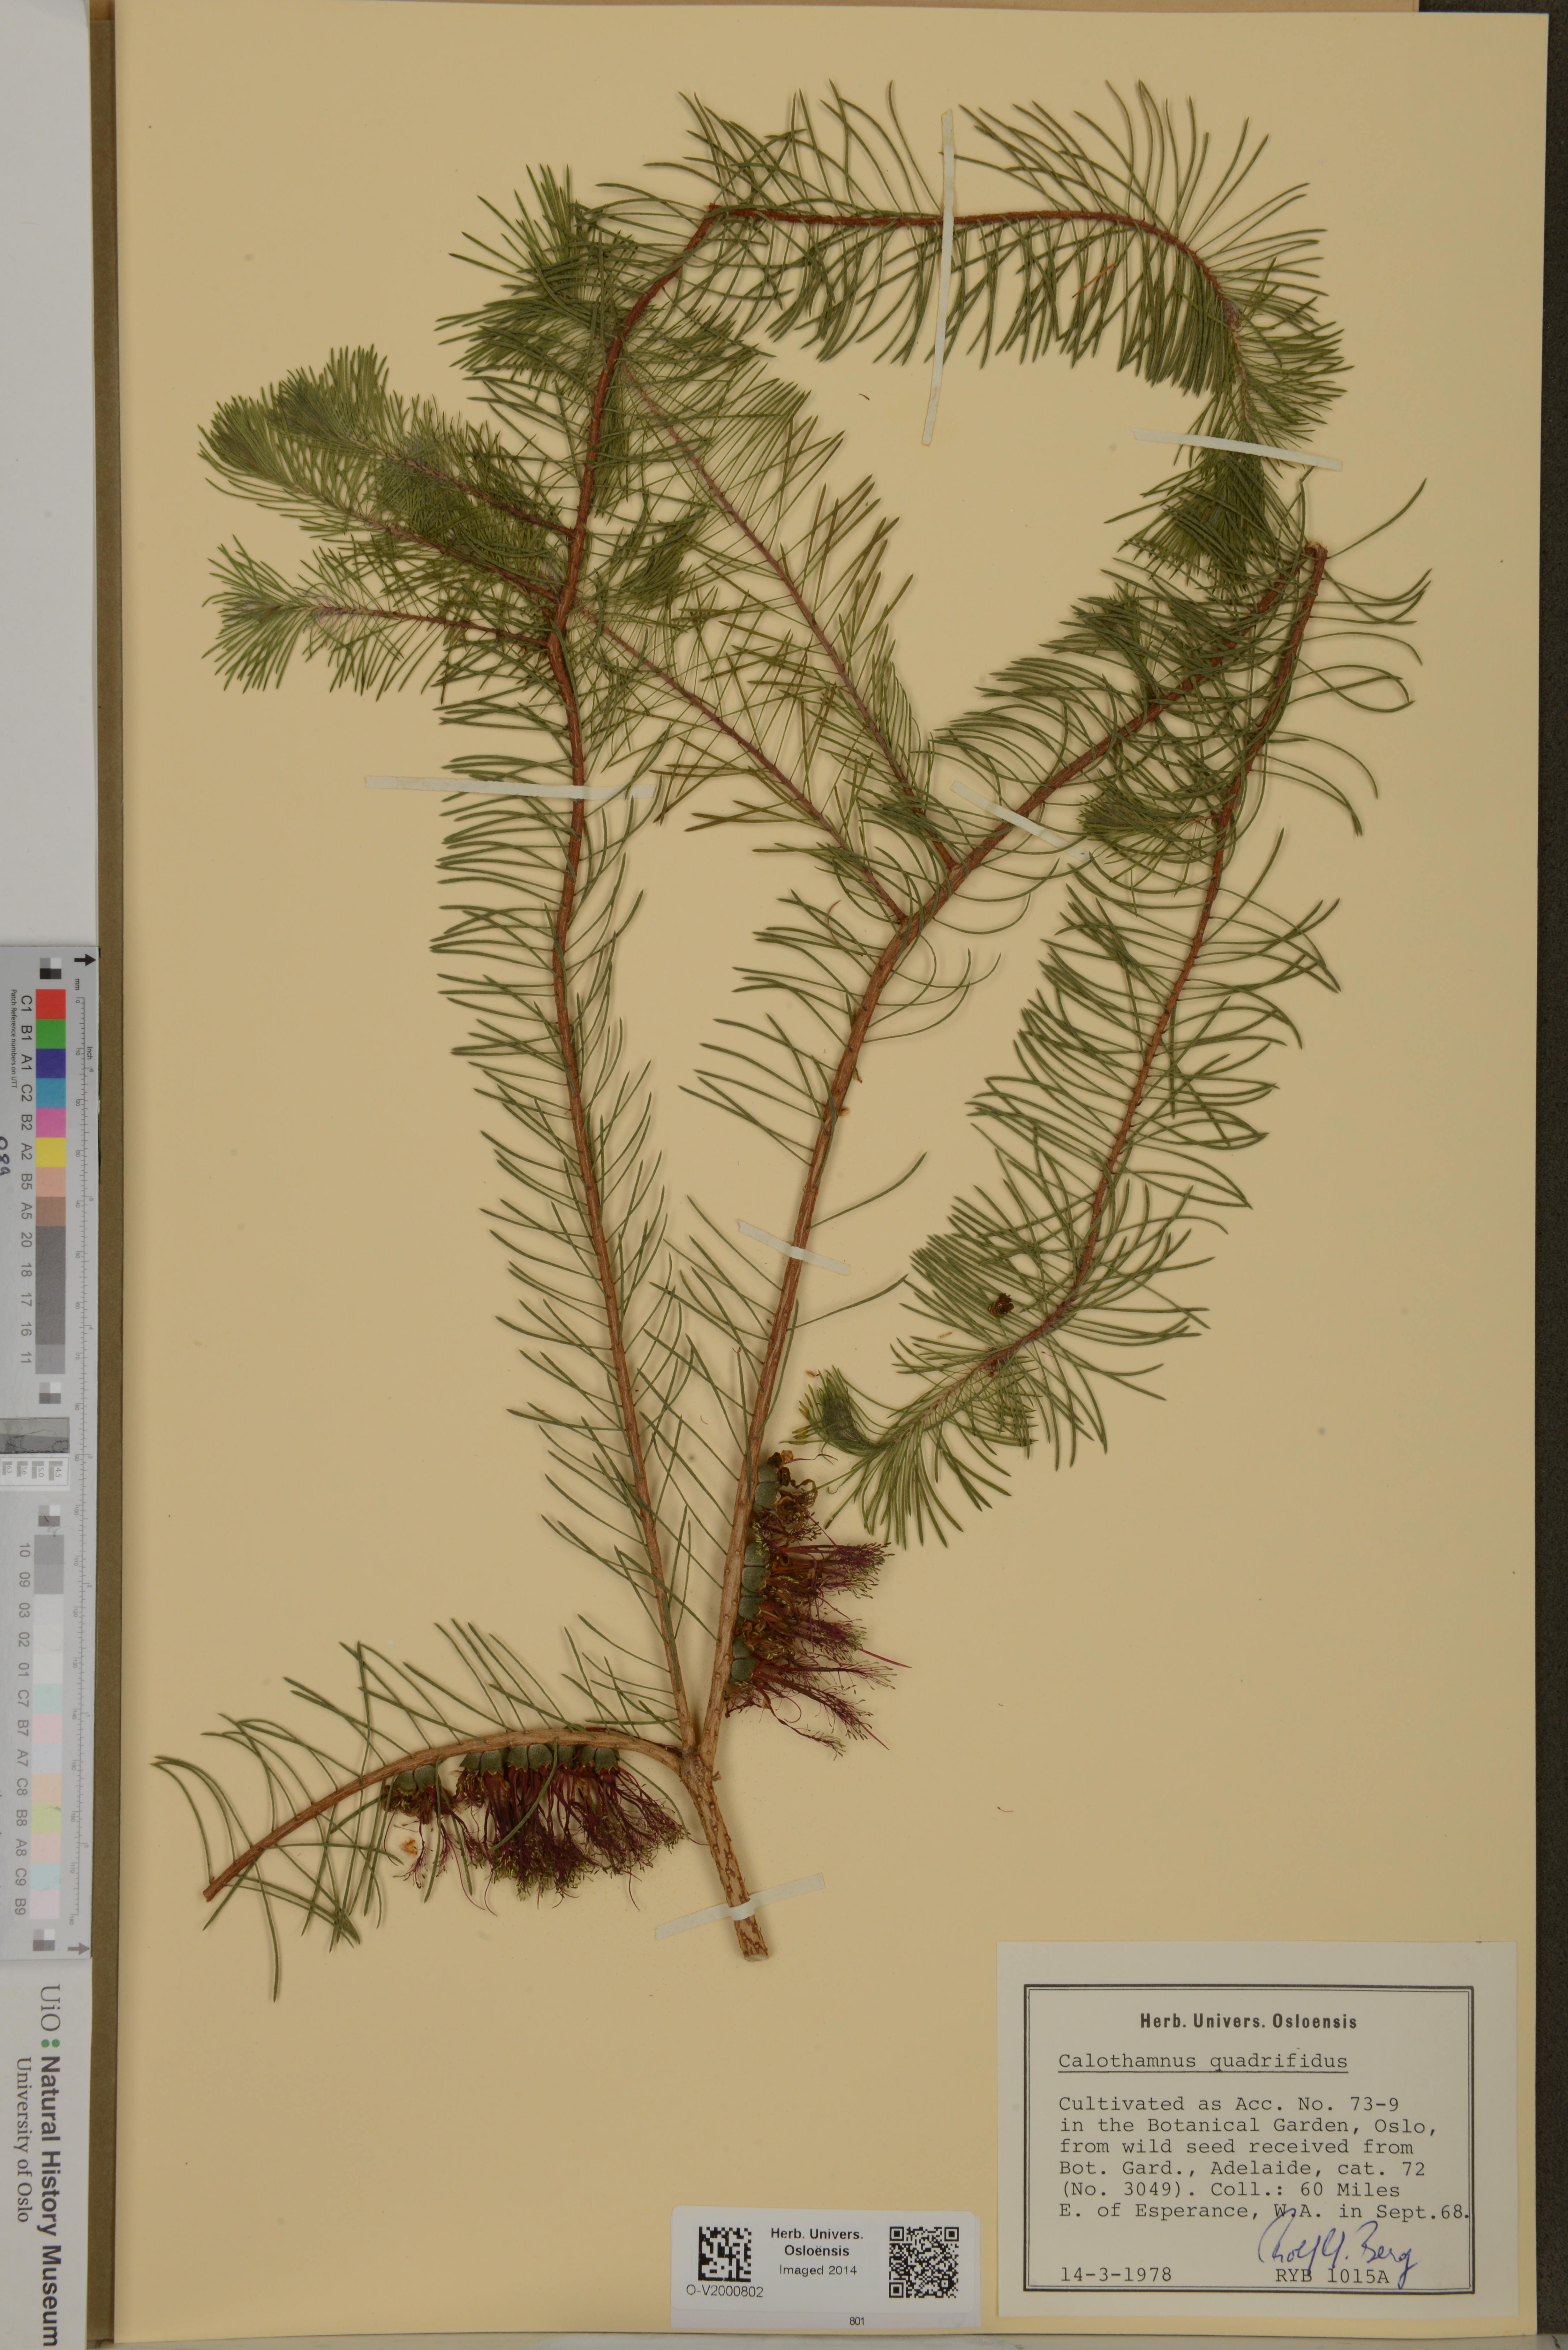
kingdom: Plantae
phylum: Tracheophyta
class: Magnoliopsida
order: Myrtales
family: Myrtaceae
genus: Melaleuca
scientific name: Melaleuca quadrifida
